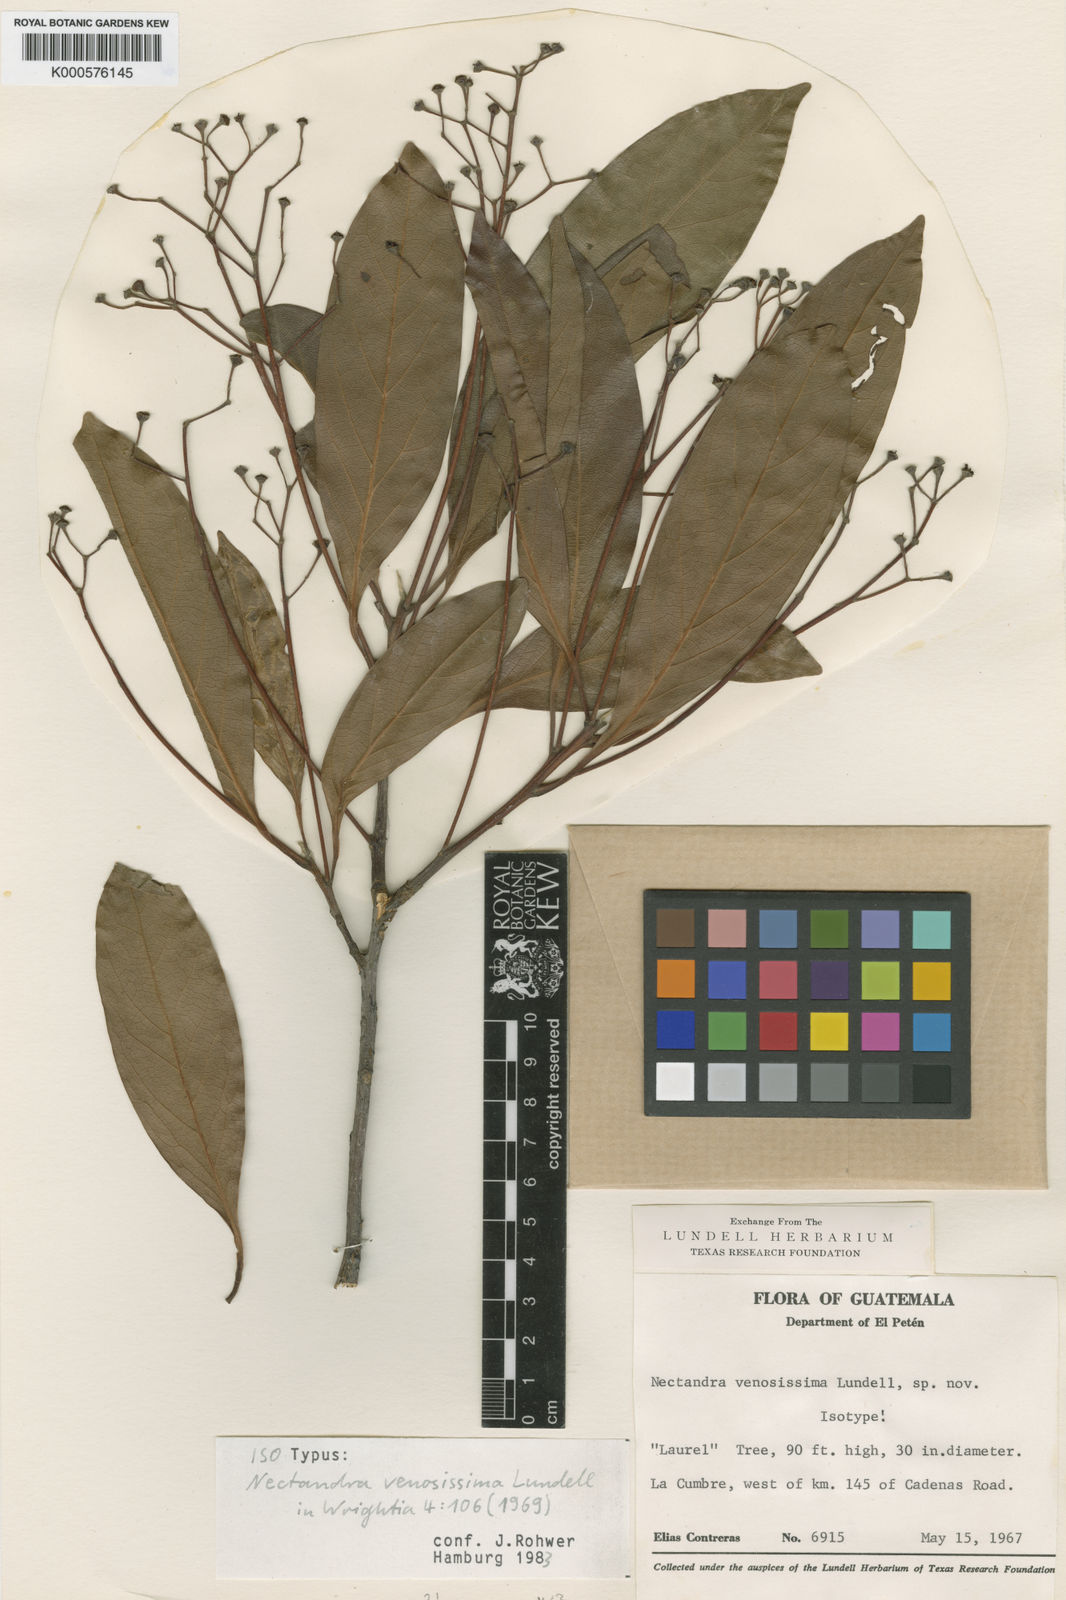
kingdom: Plantae
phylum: Tracheophyta
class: Magnoliopsida
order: Laurales
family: Lauraceae
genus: Damburneya
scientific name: Damburneya ambigens
